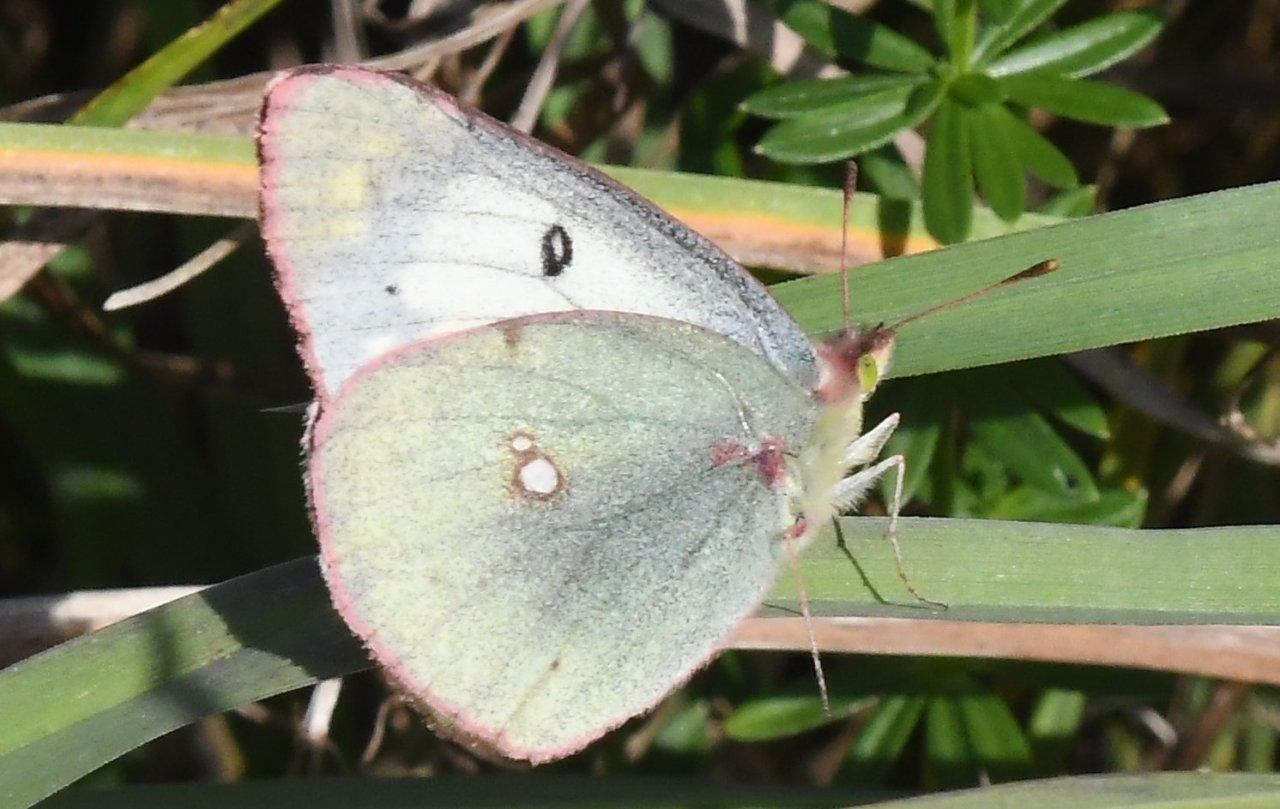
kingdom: Animalia
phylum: Arthropoda
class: Insecta
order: Lepidoptera
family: Pieridae
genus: Colias
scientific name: Colias
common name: Clouded Yellows
